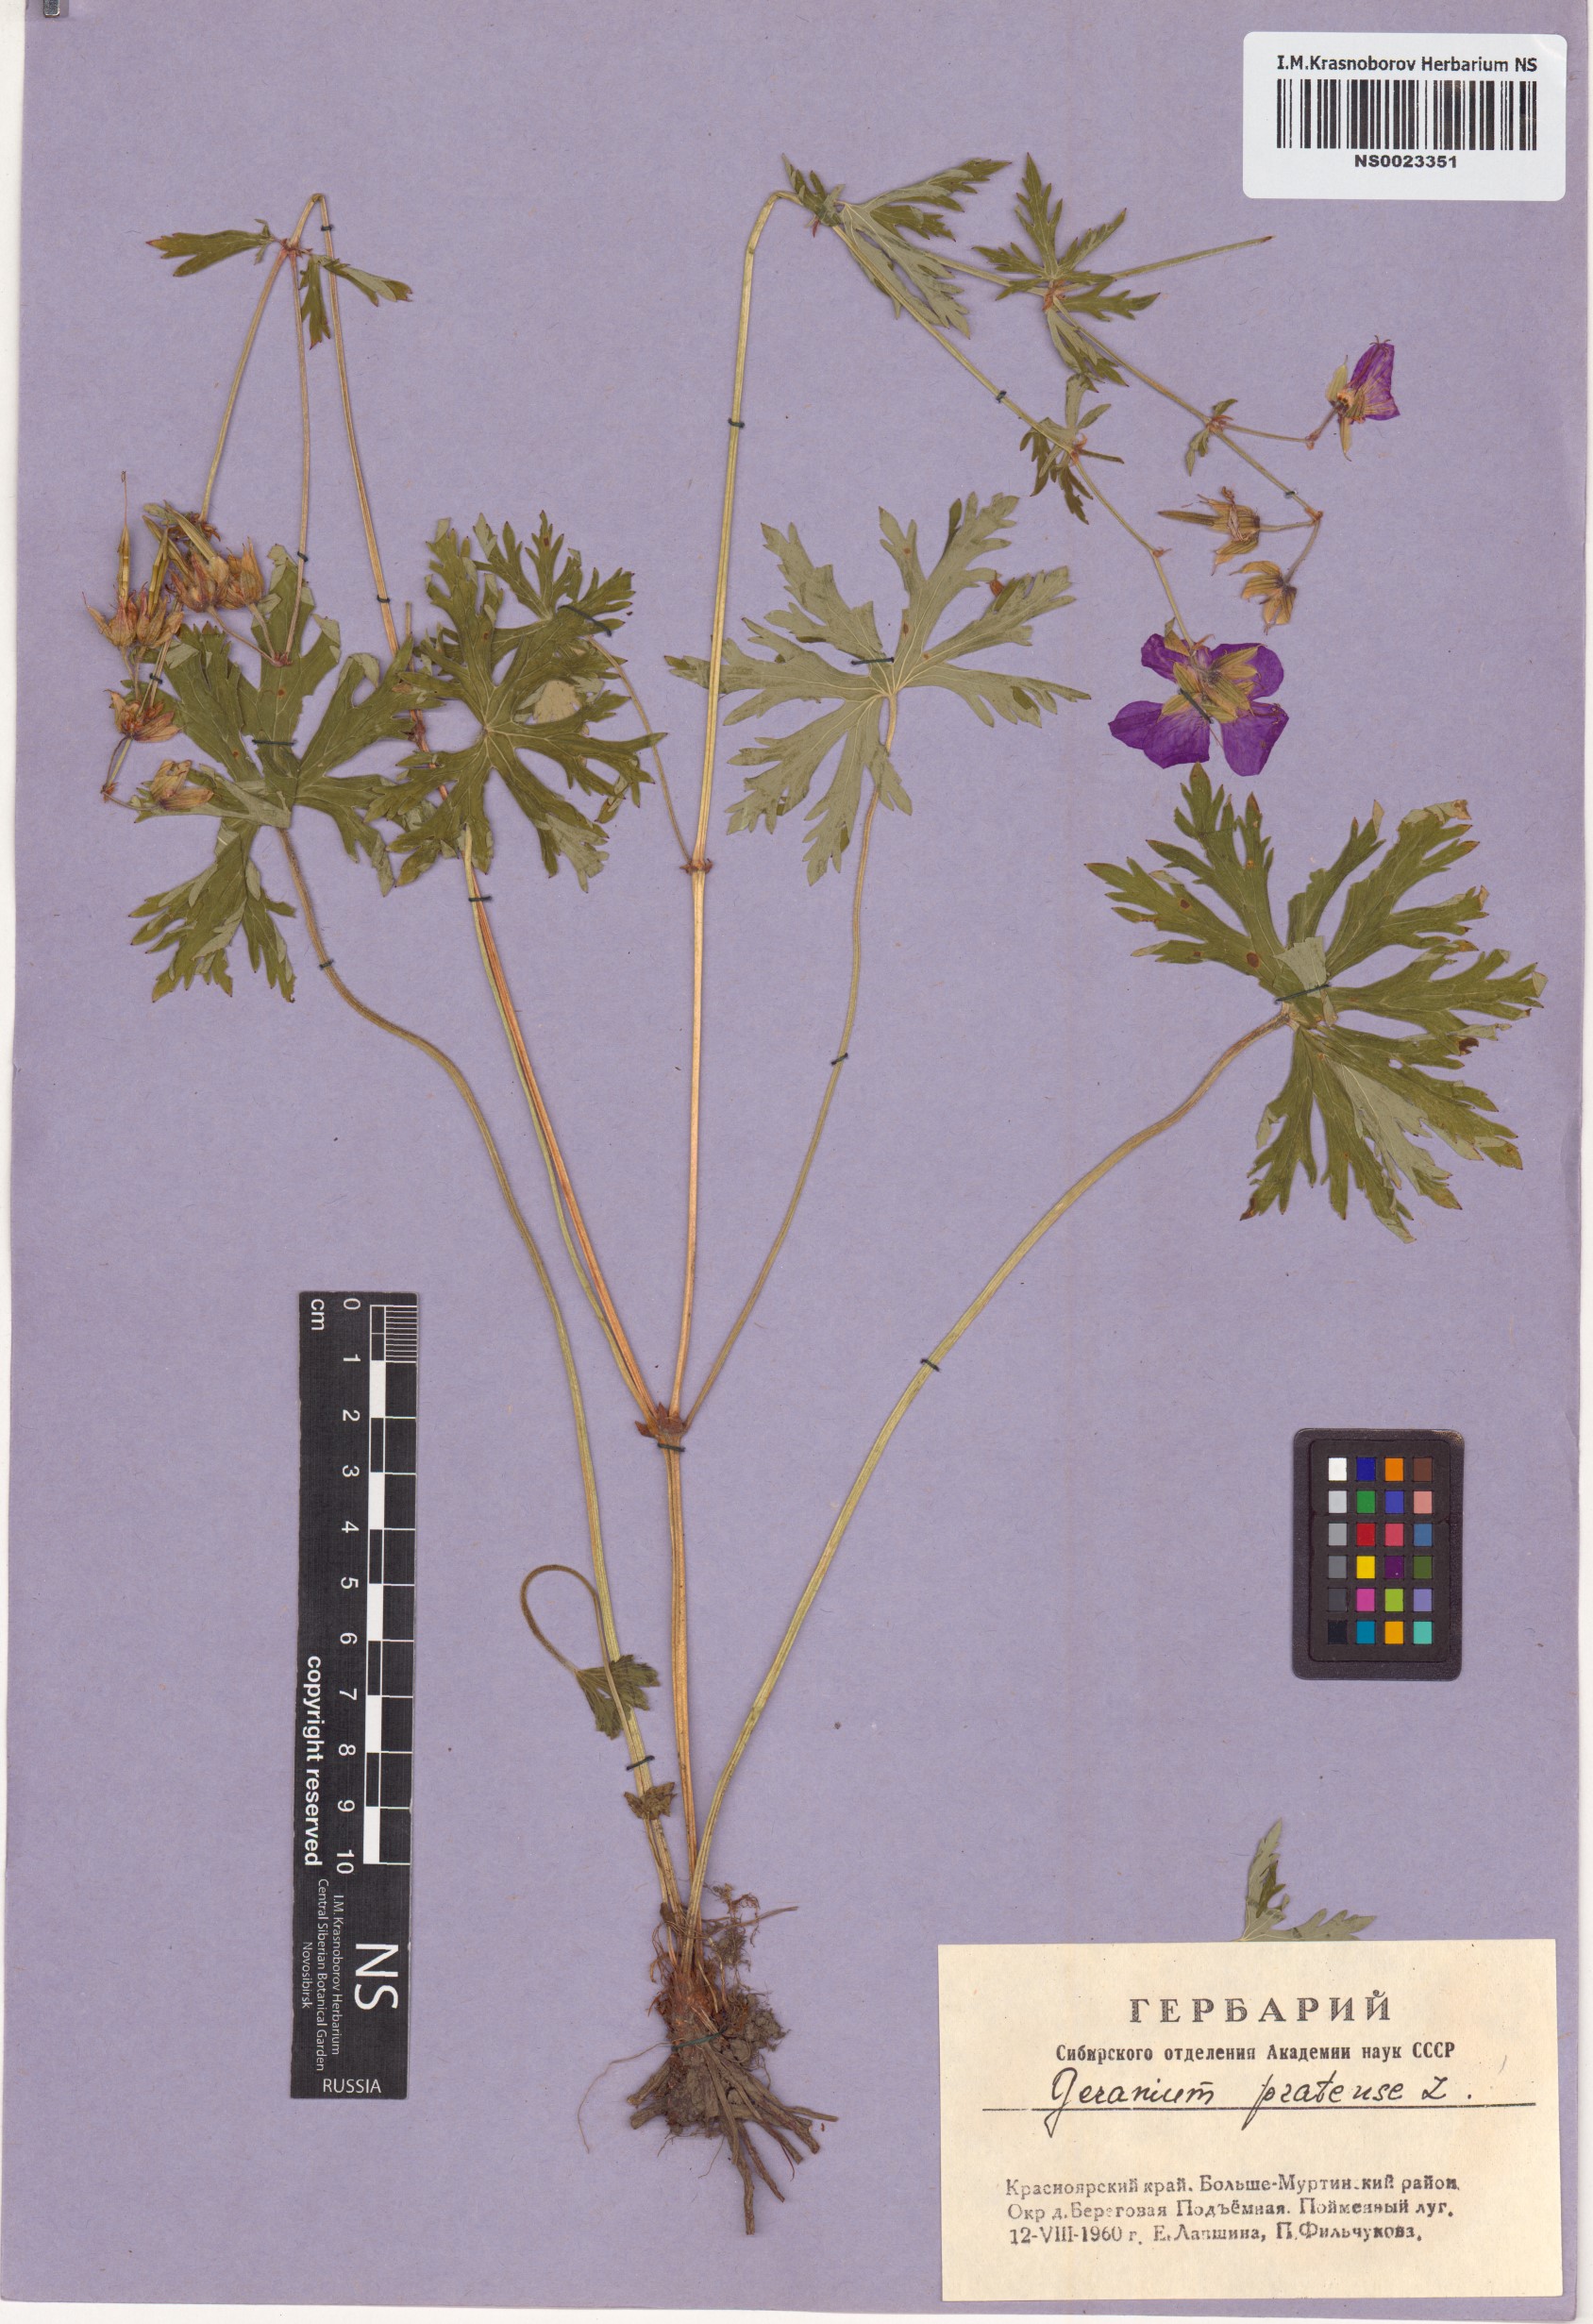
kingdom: Plantae
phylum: Tracheophyta
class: Magnoliopsida
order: Geraniales
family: Geraniaceae
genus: Geranium
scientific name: Geranium pratense
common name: Meadow crane's-bill
